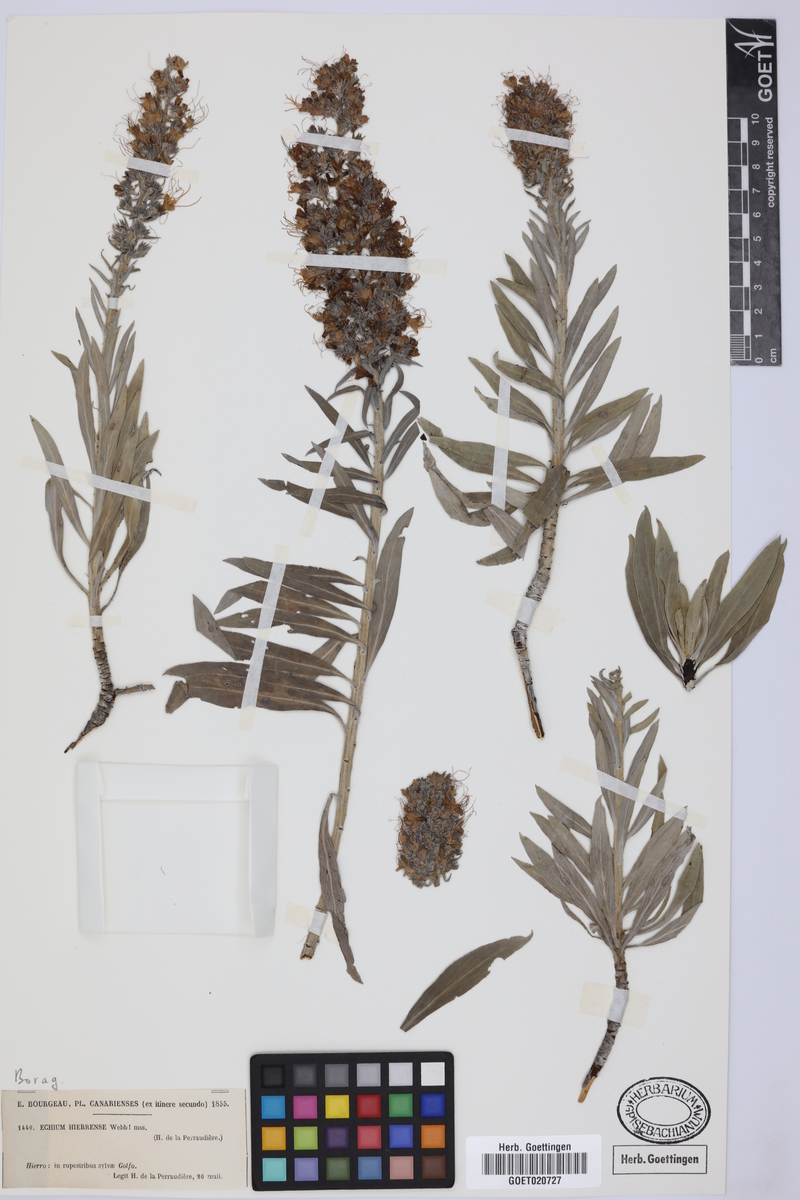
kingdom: Plantae
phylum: Tracheophyta
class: Magnoliopsida
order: Boraginales
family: Boraginaceae
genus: Echium
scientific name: Echium hierrense
